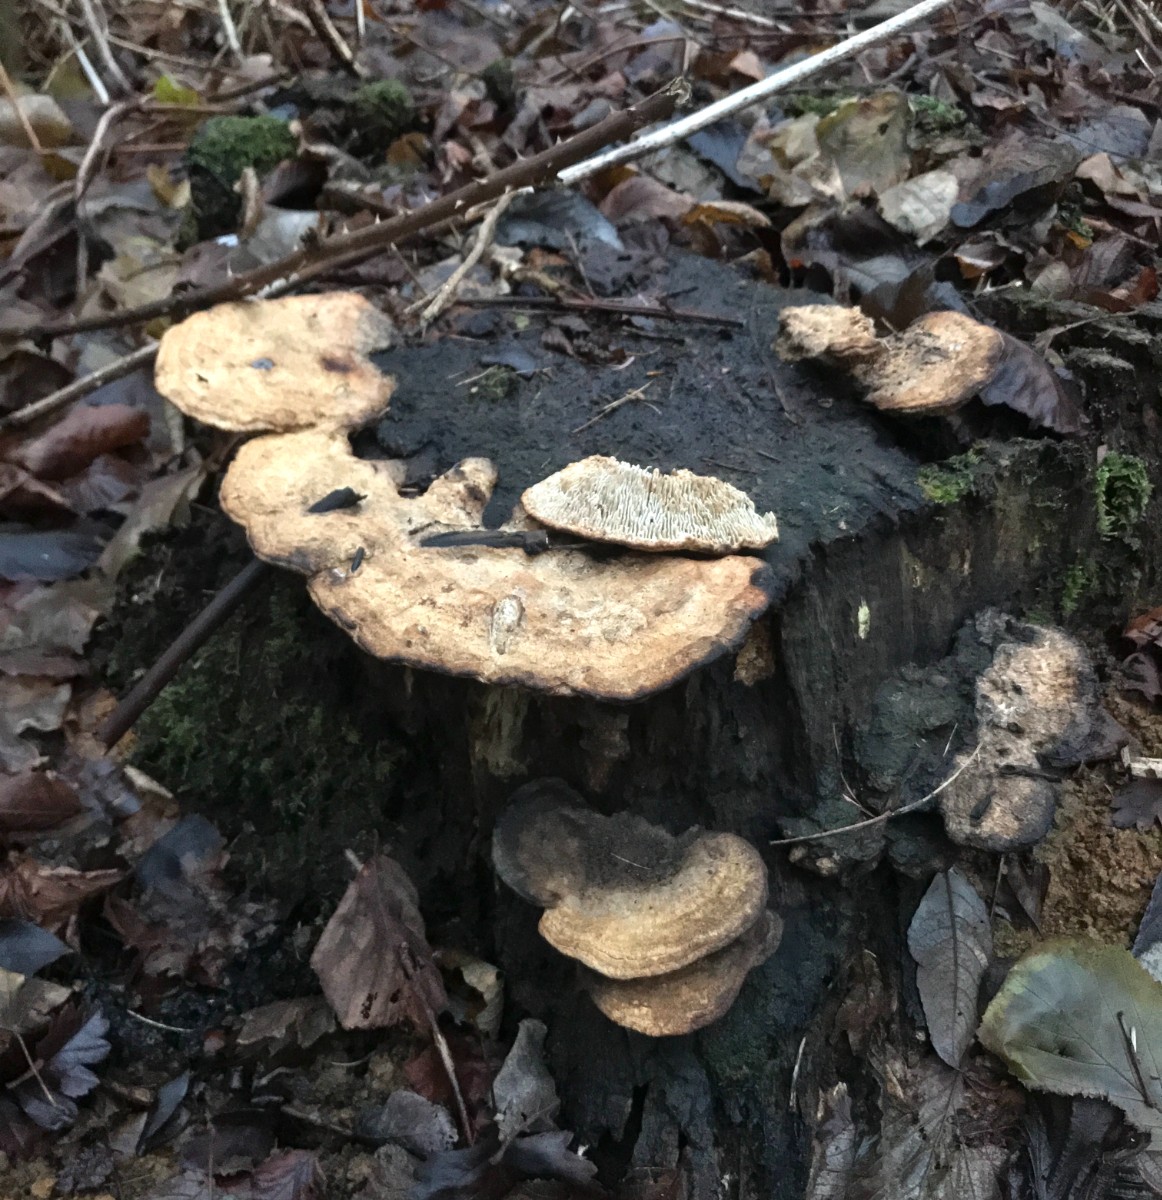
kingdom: Fungi
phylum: Basidiomycota
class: Agaricomycetes
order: Polyporales
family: Fomitopsidaceae
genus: Daedalea
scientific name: Daedalea quercina
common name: ege-labyrintsvamp
